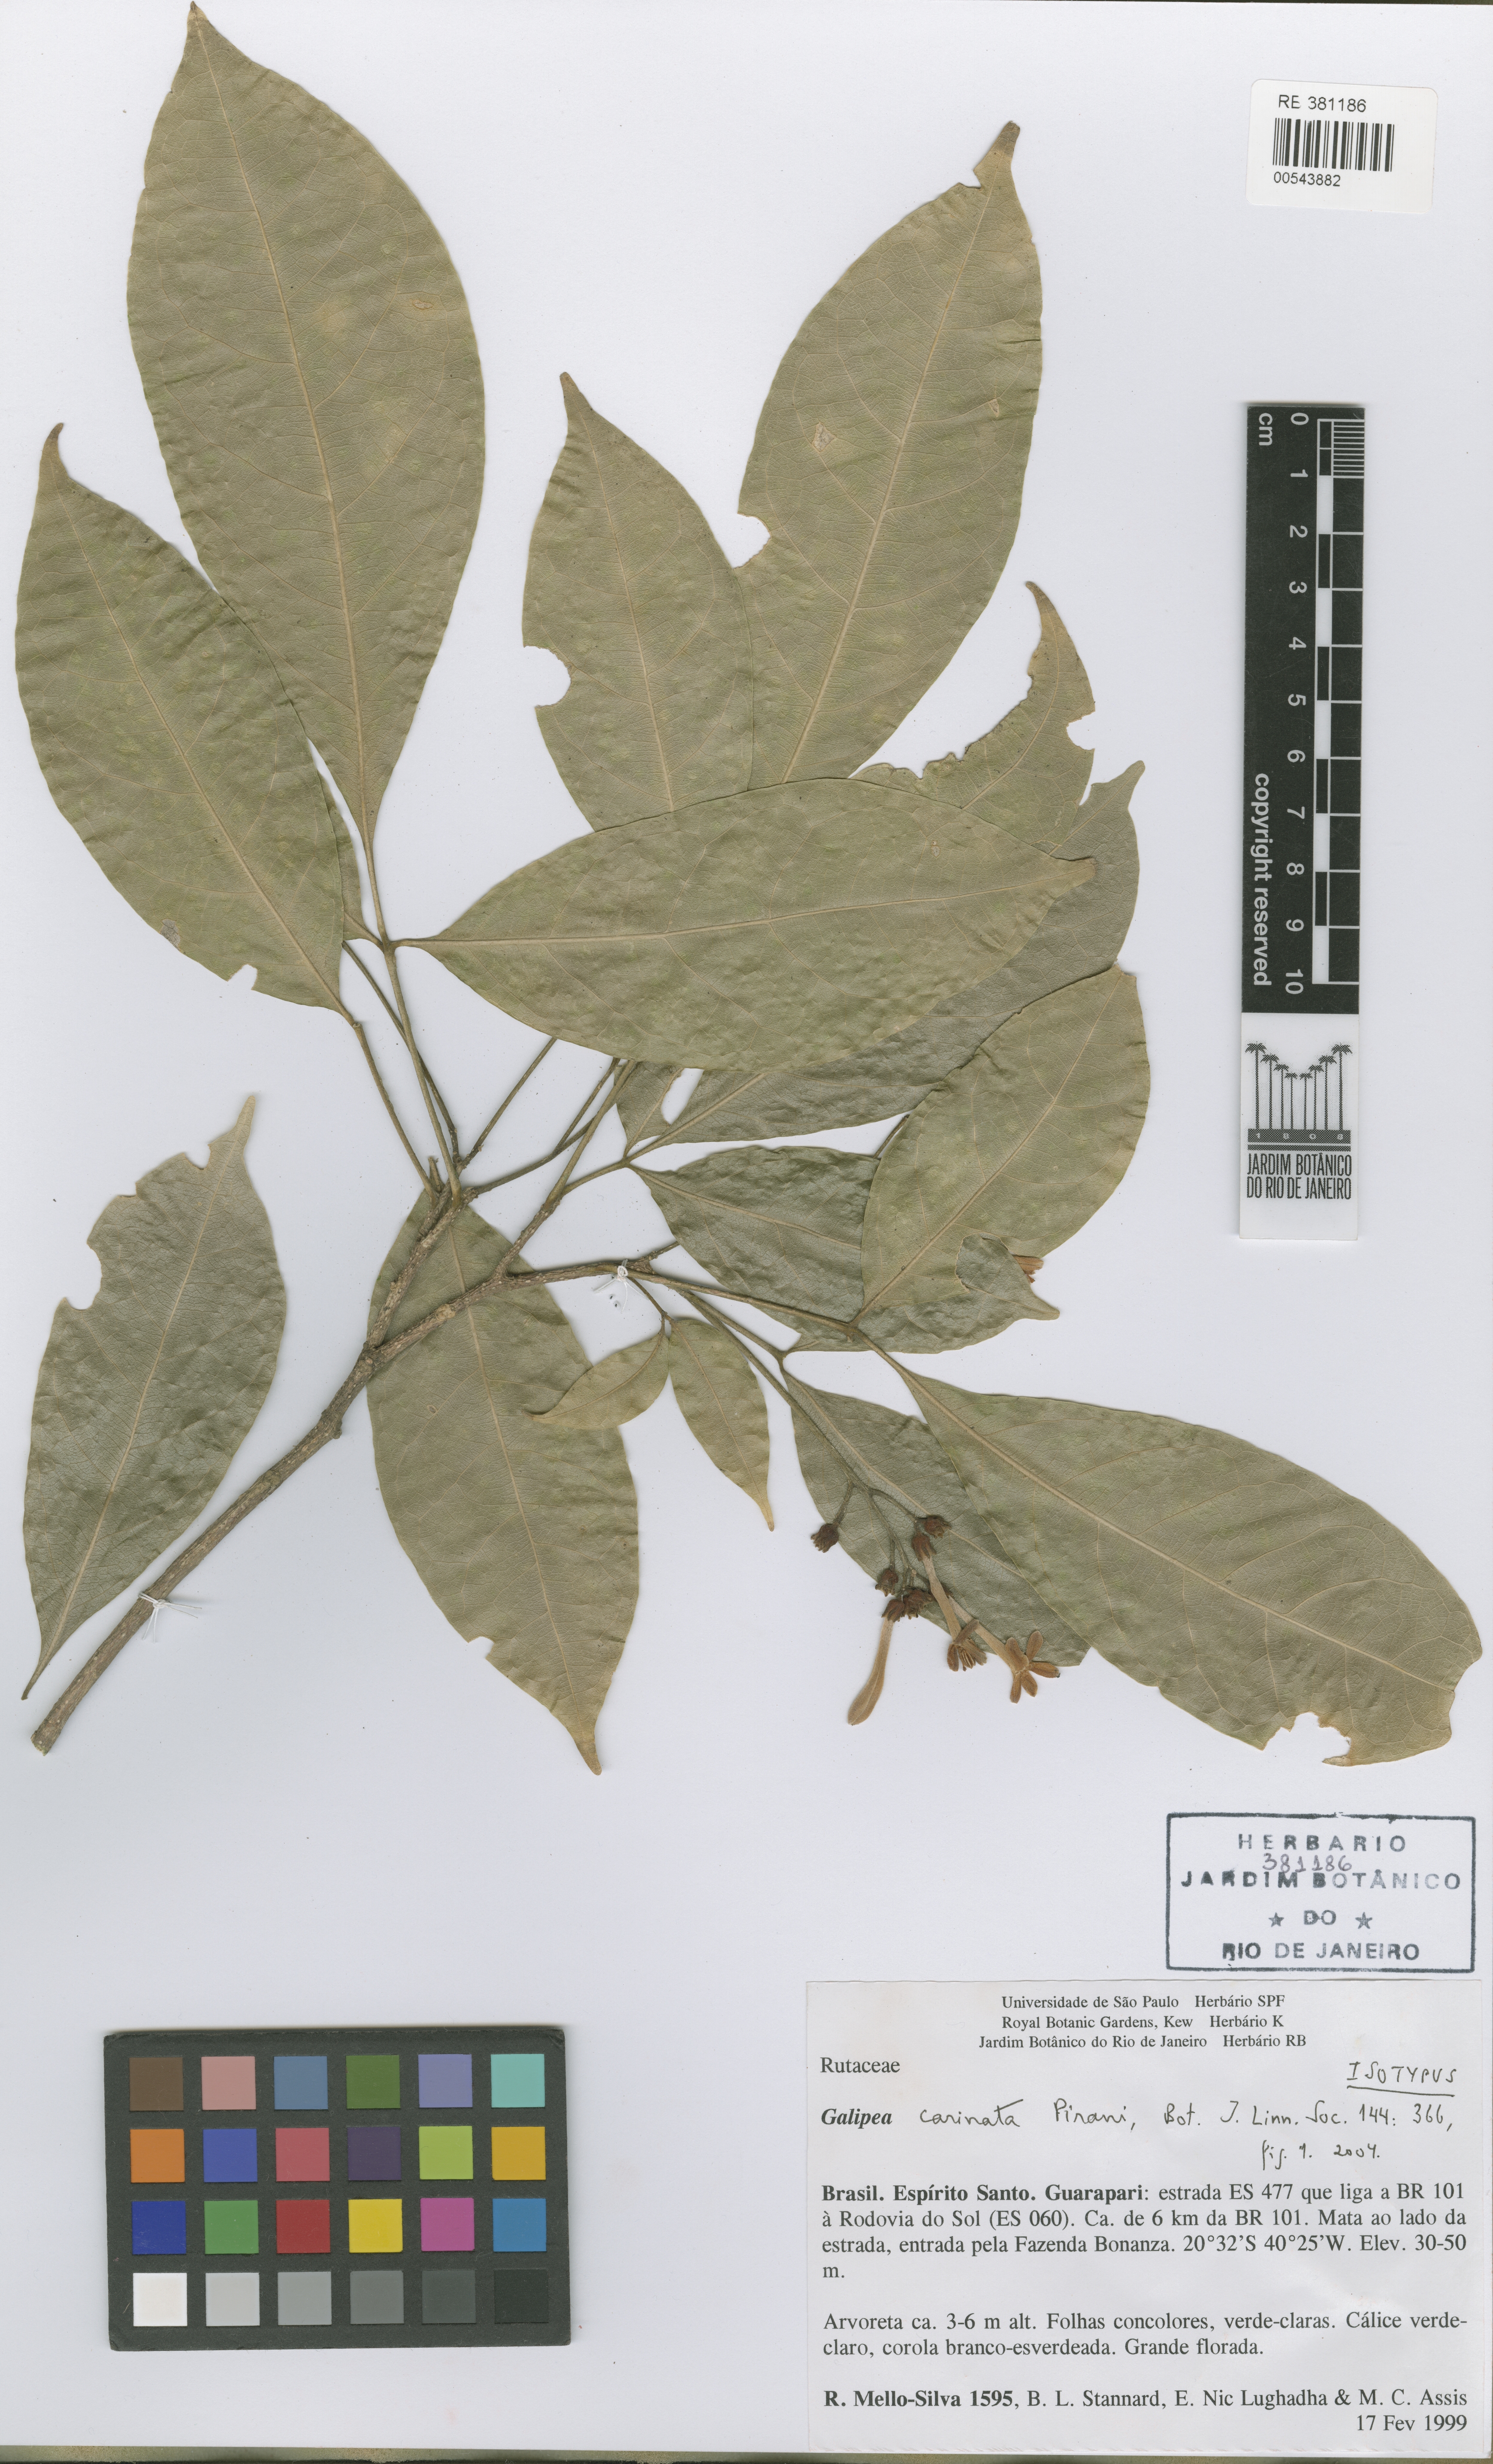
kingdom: Plantae
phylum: Tracheophyta
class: Magnoliopsida
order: Sapindales
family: Rutaceae
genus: Galipea
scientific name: Galipea carinata
